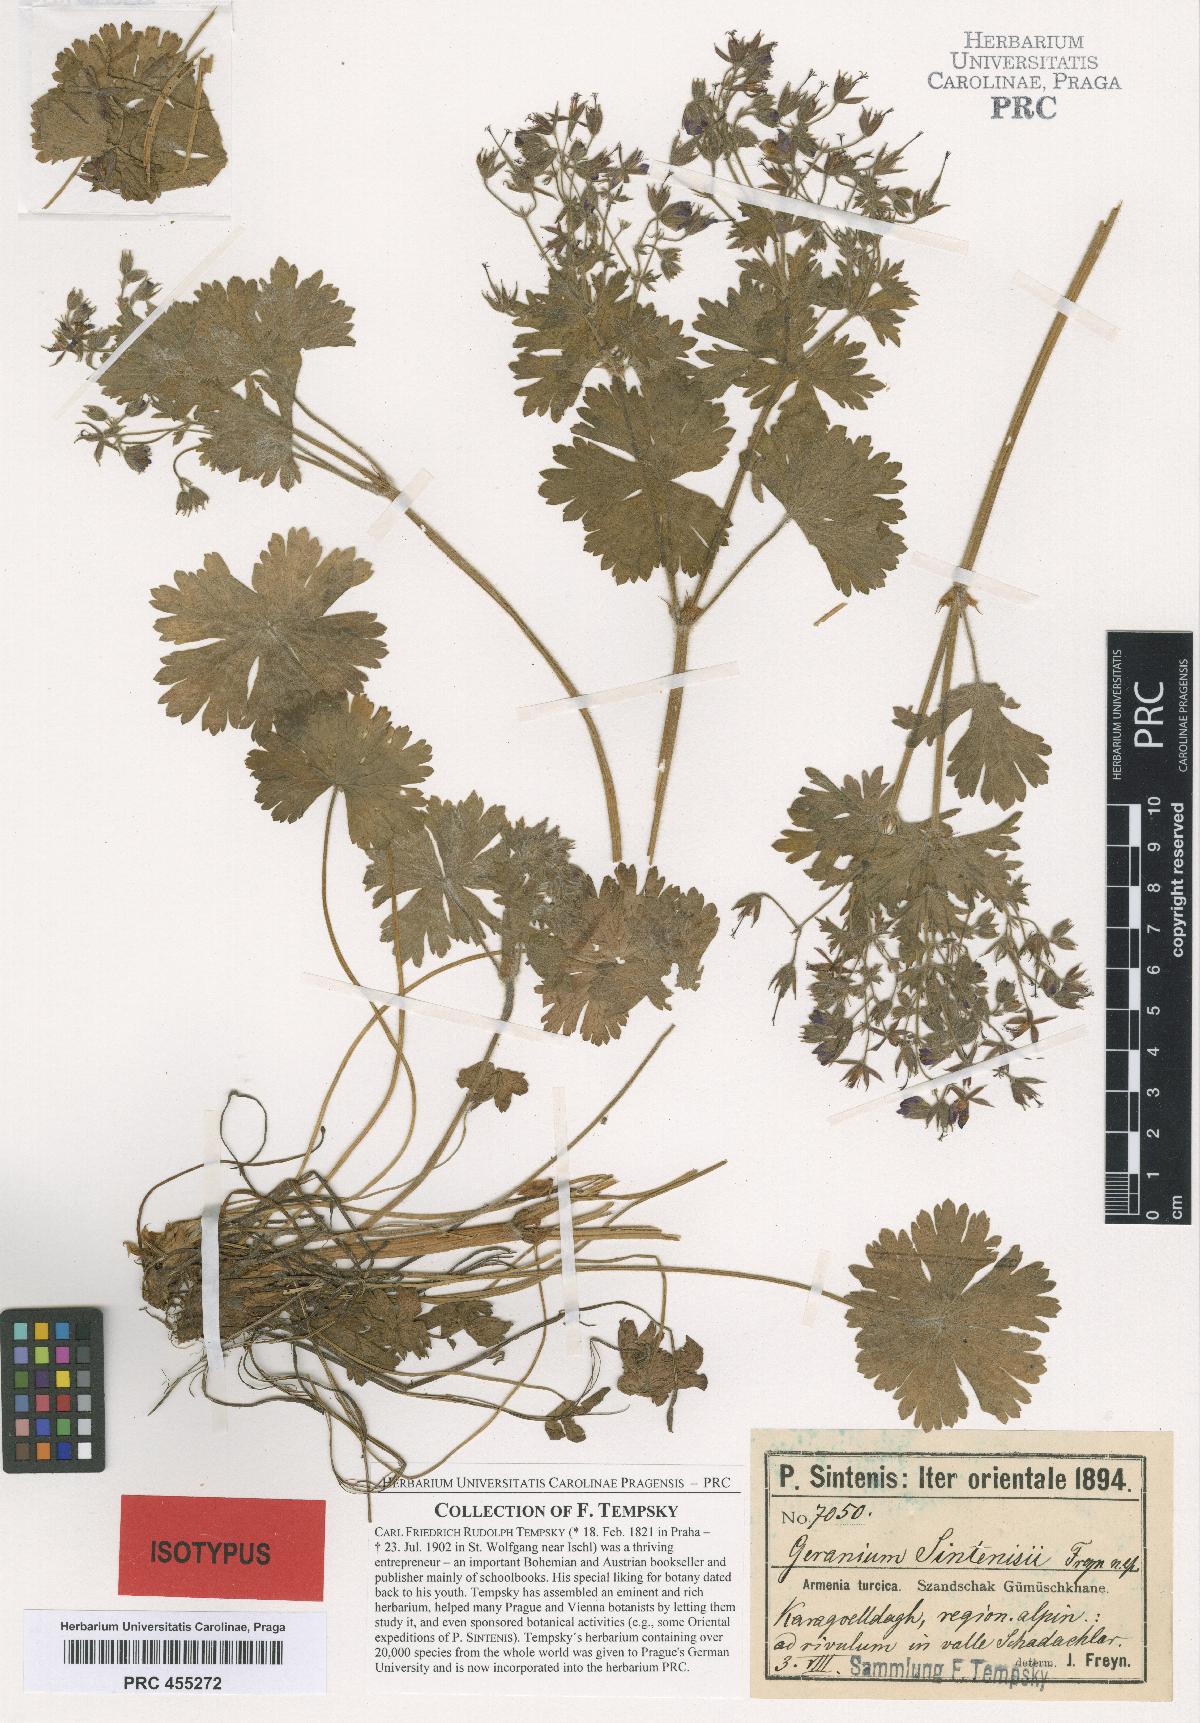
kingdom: Plantae
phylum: Tracheophyta
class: Magnoliopsida
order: Geraniales
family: Geraniaceae
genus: Geranium
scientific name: Geranium sintenisii
